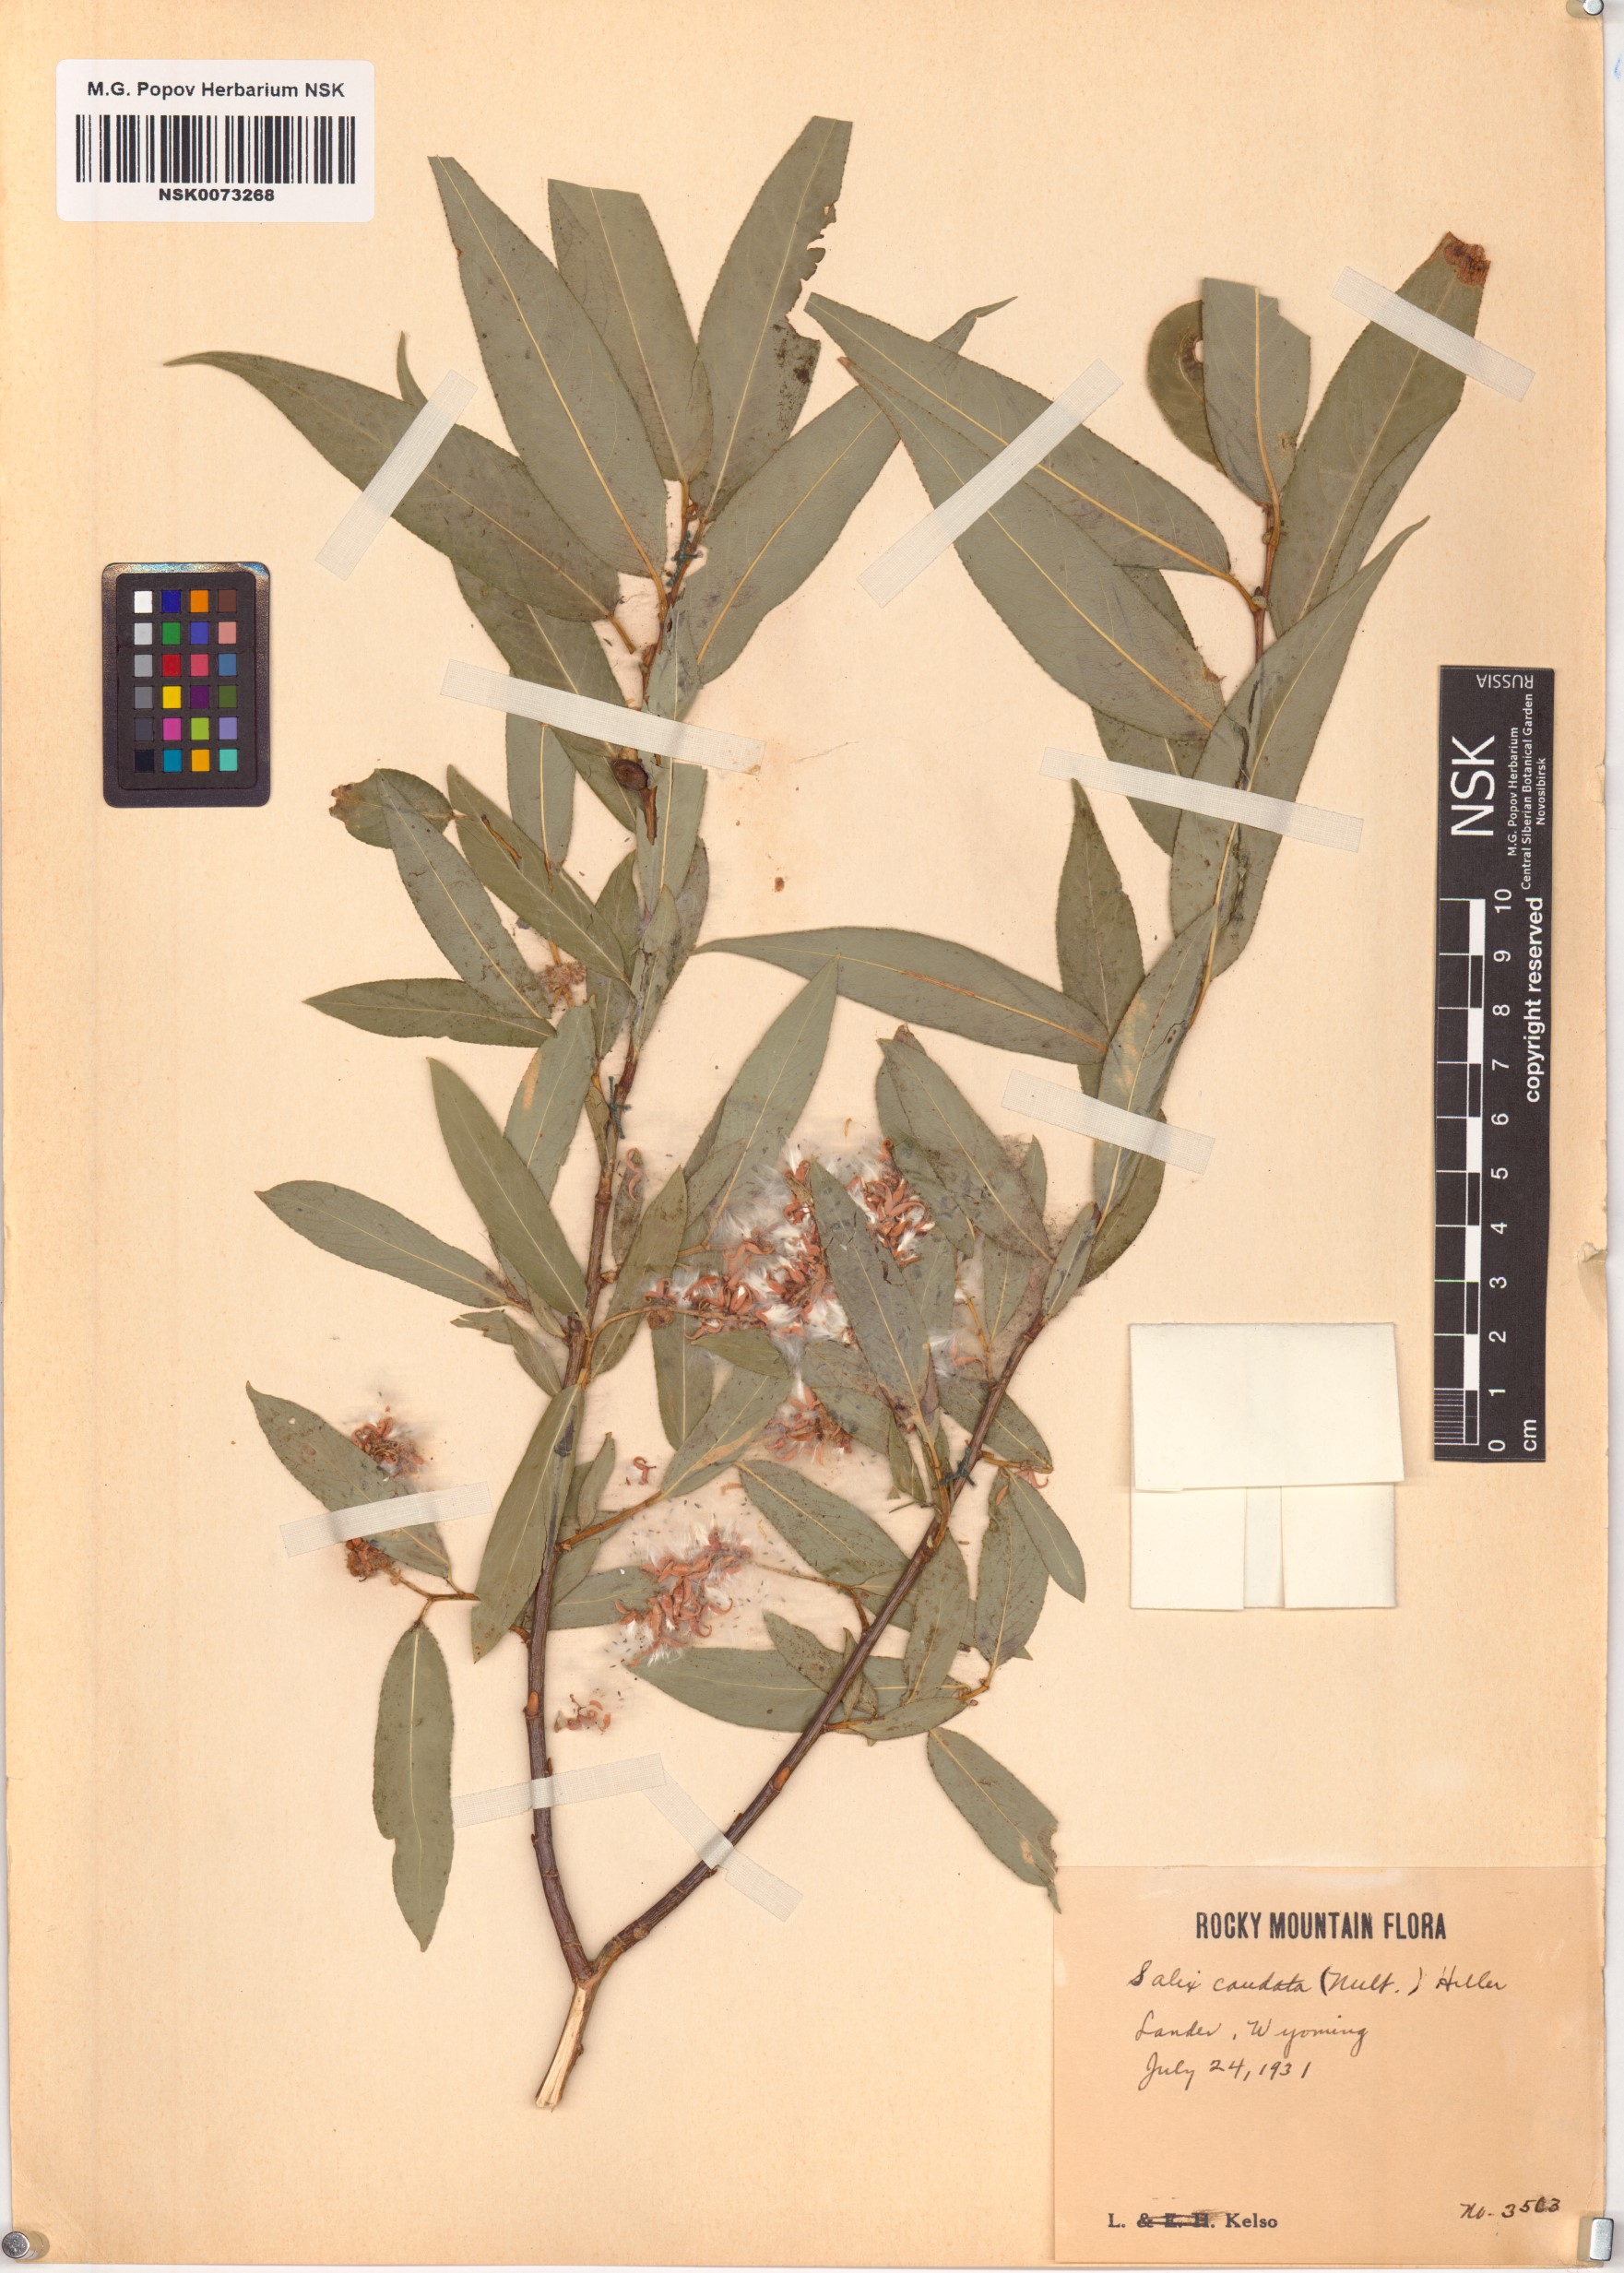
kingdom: Plantae
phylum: Tracheophyta
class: Magnoliopsida
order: Malpighiales
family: Salicaceae
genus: Salix
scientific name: Salix lucida
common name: Shining willow
